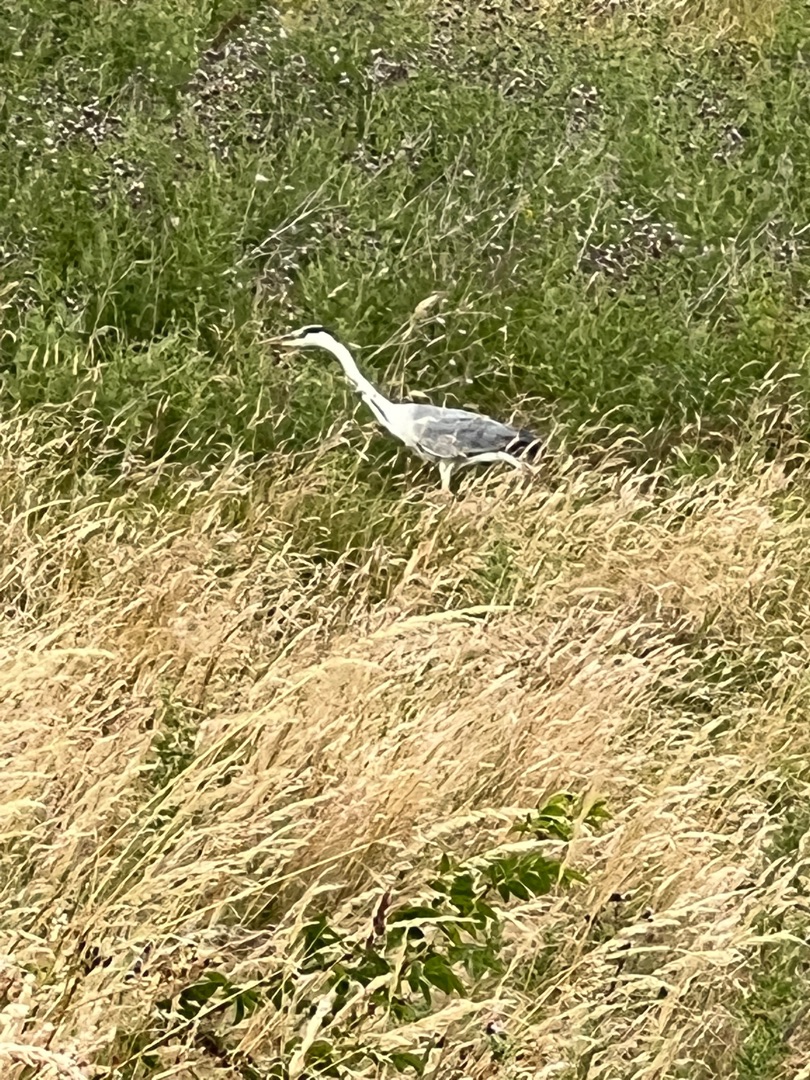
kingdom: Animalia
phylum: Chordata
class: Aves
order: Pelecaniformes
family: Ardeidae
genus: Ardea
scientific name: Ardea cinerea
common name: Fiskehejre
